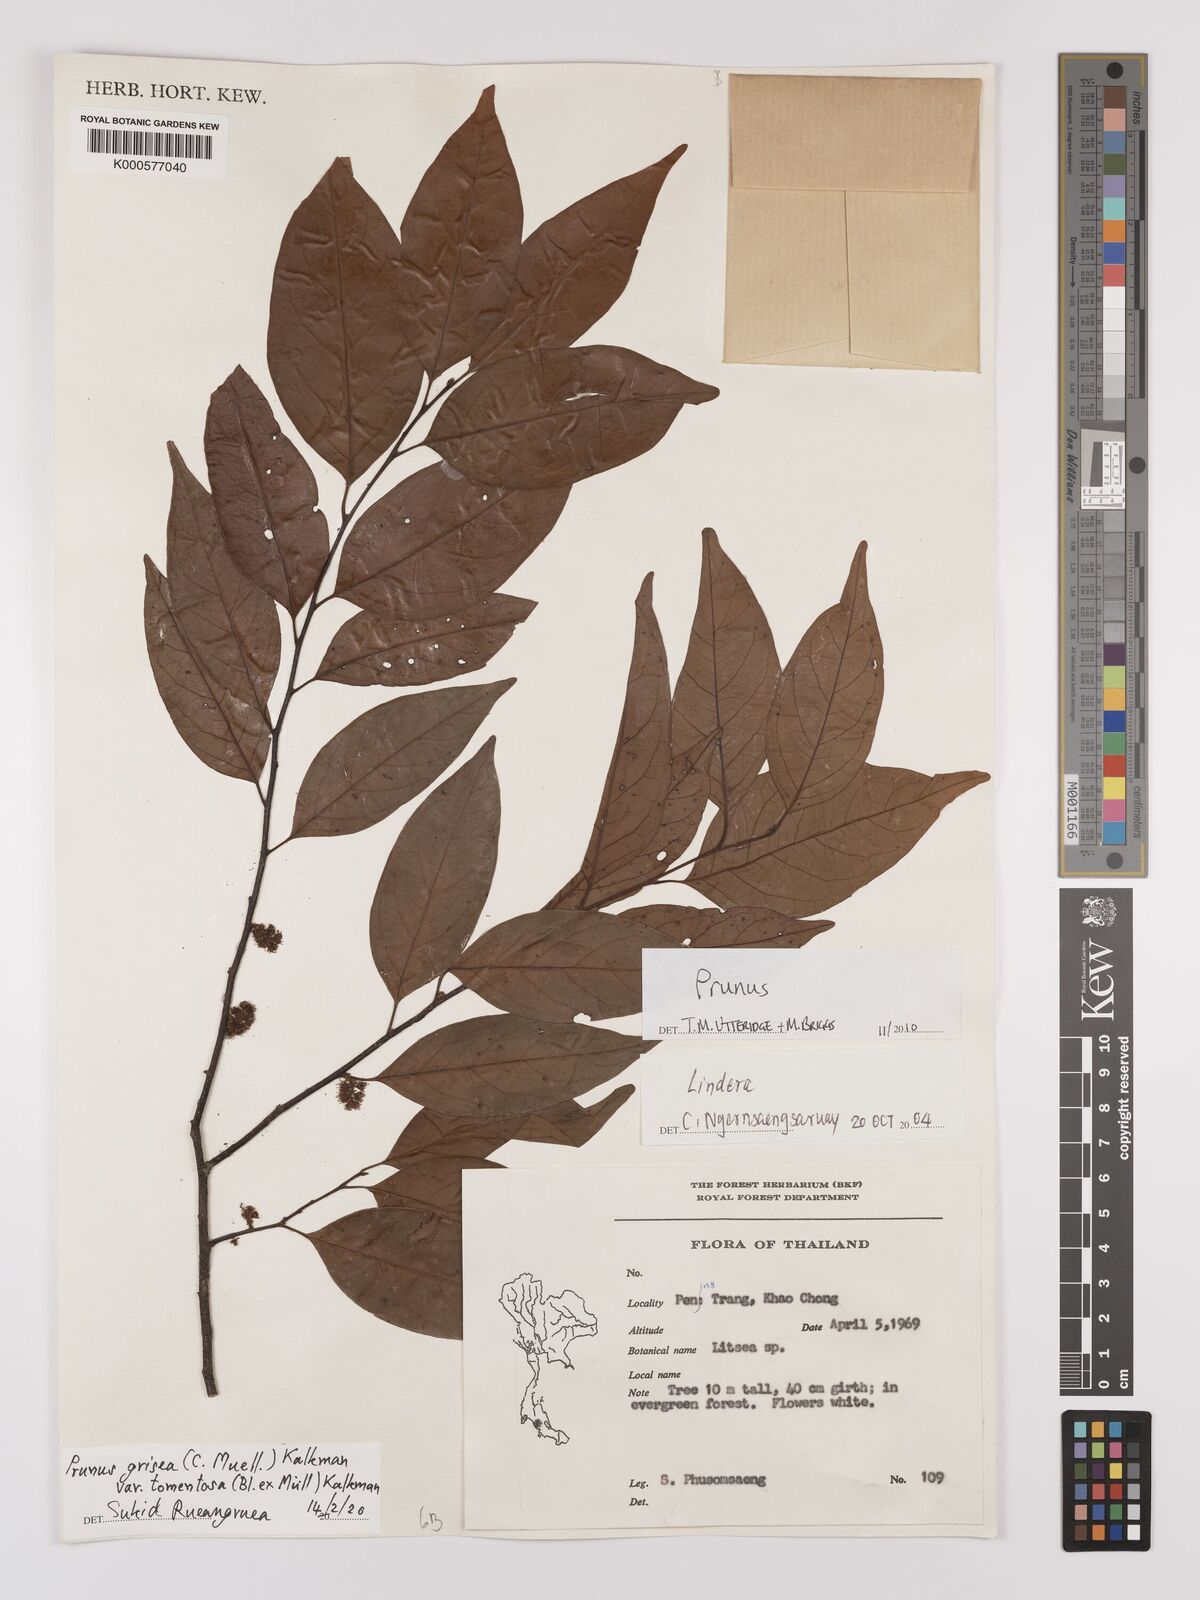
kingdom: Plantae
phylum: Tracheophyta
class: Magnoliopsida
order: Rosales
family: Rosaceae
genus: Prunus
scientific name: Prunus
